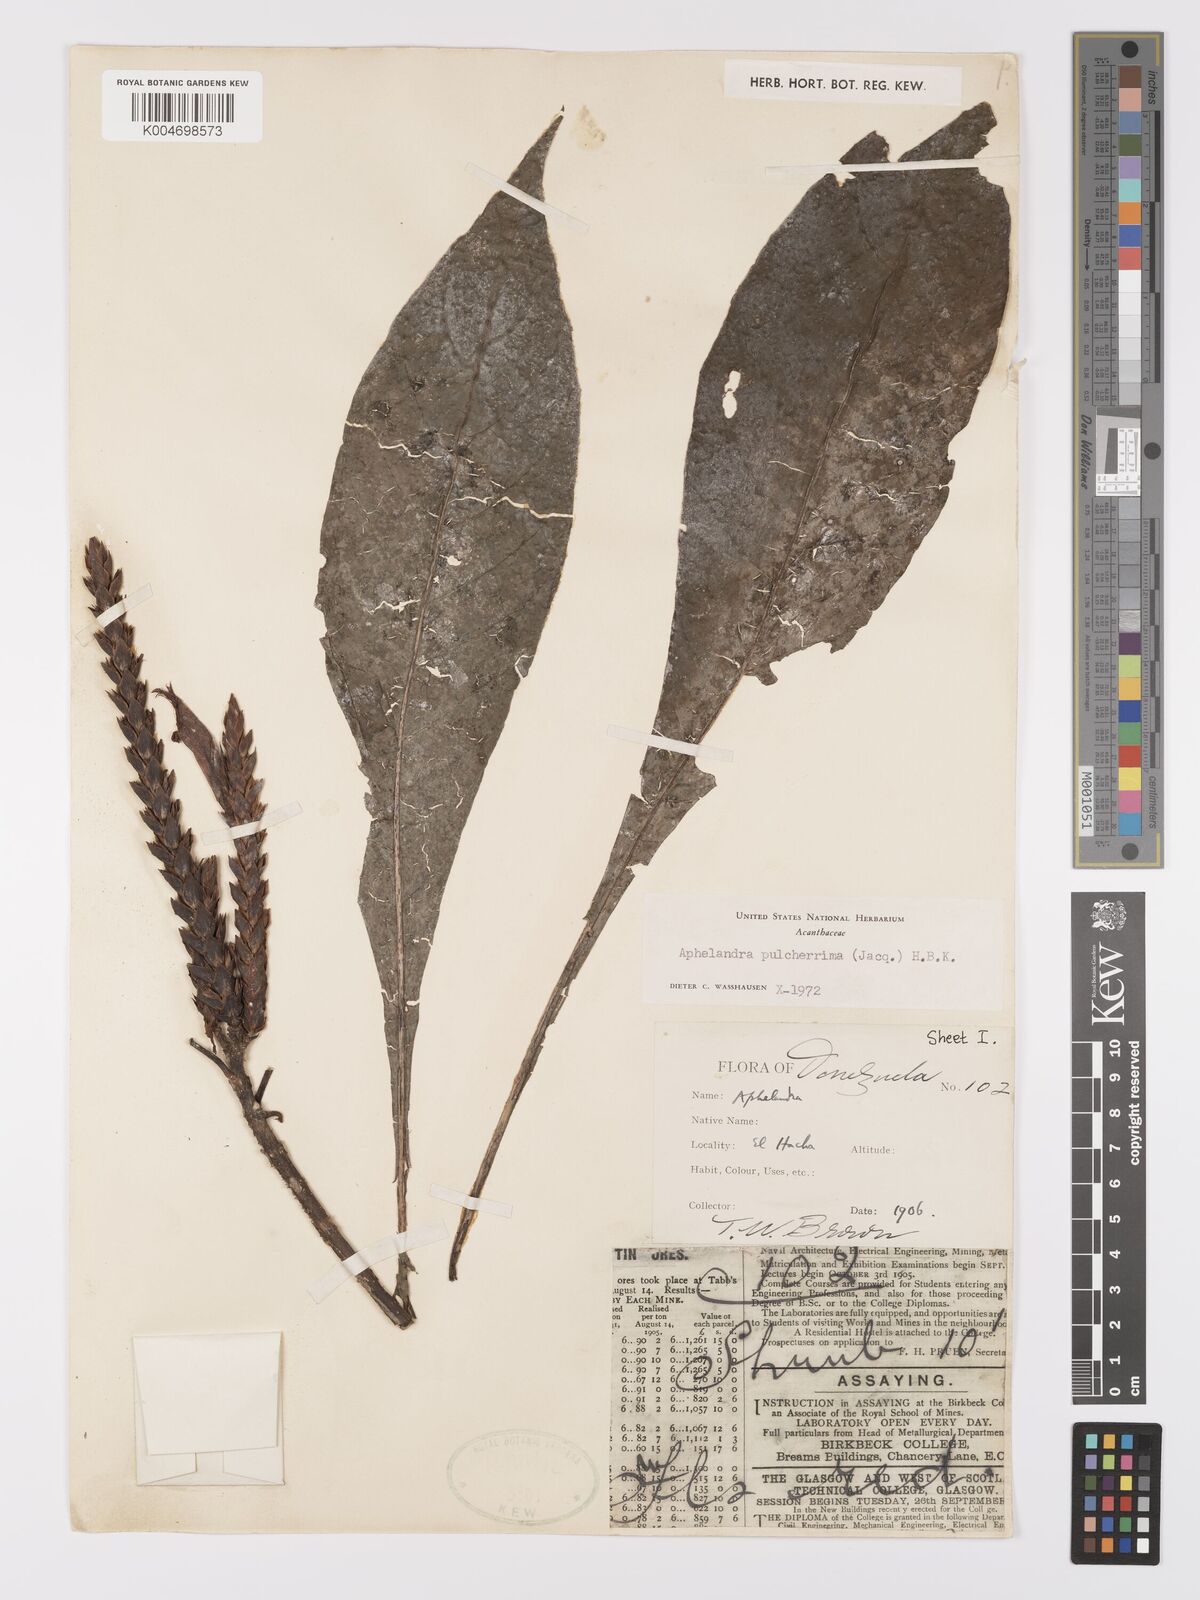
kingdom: Plantae
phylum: Tracheophyta
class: Magnoliopsida
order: Lamiales
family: Acanthaceae
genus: Aphelandra
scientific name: Aphelandra glabrata
